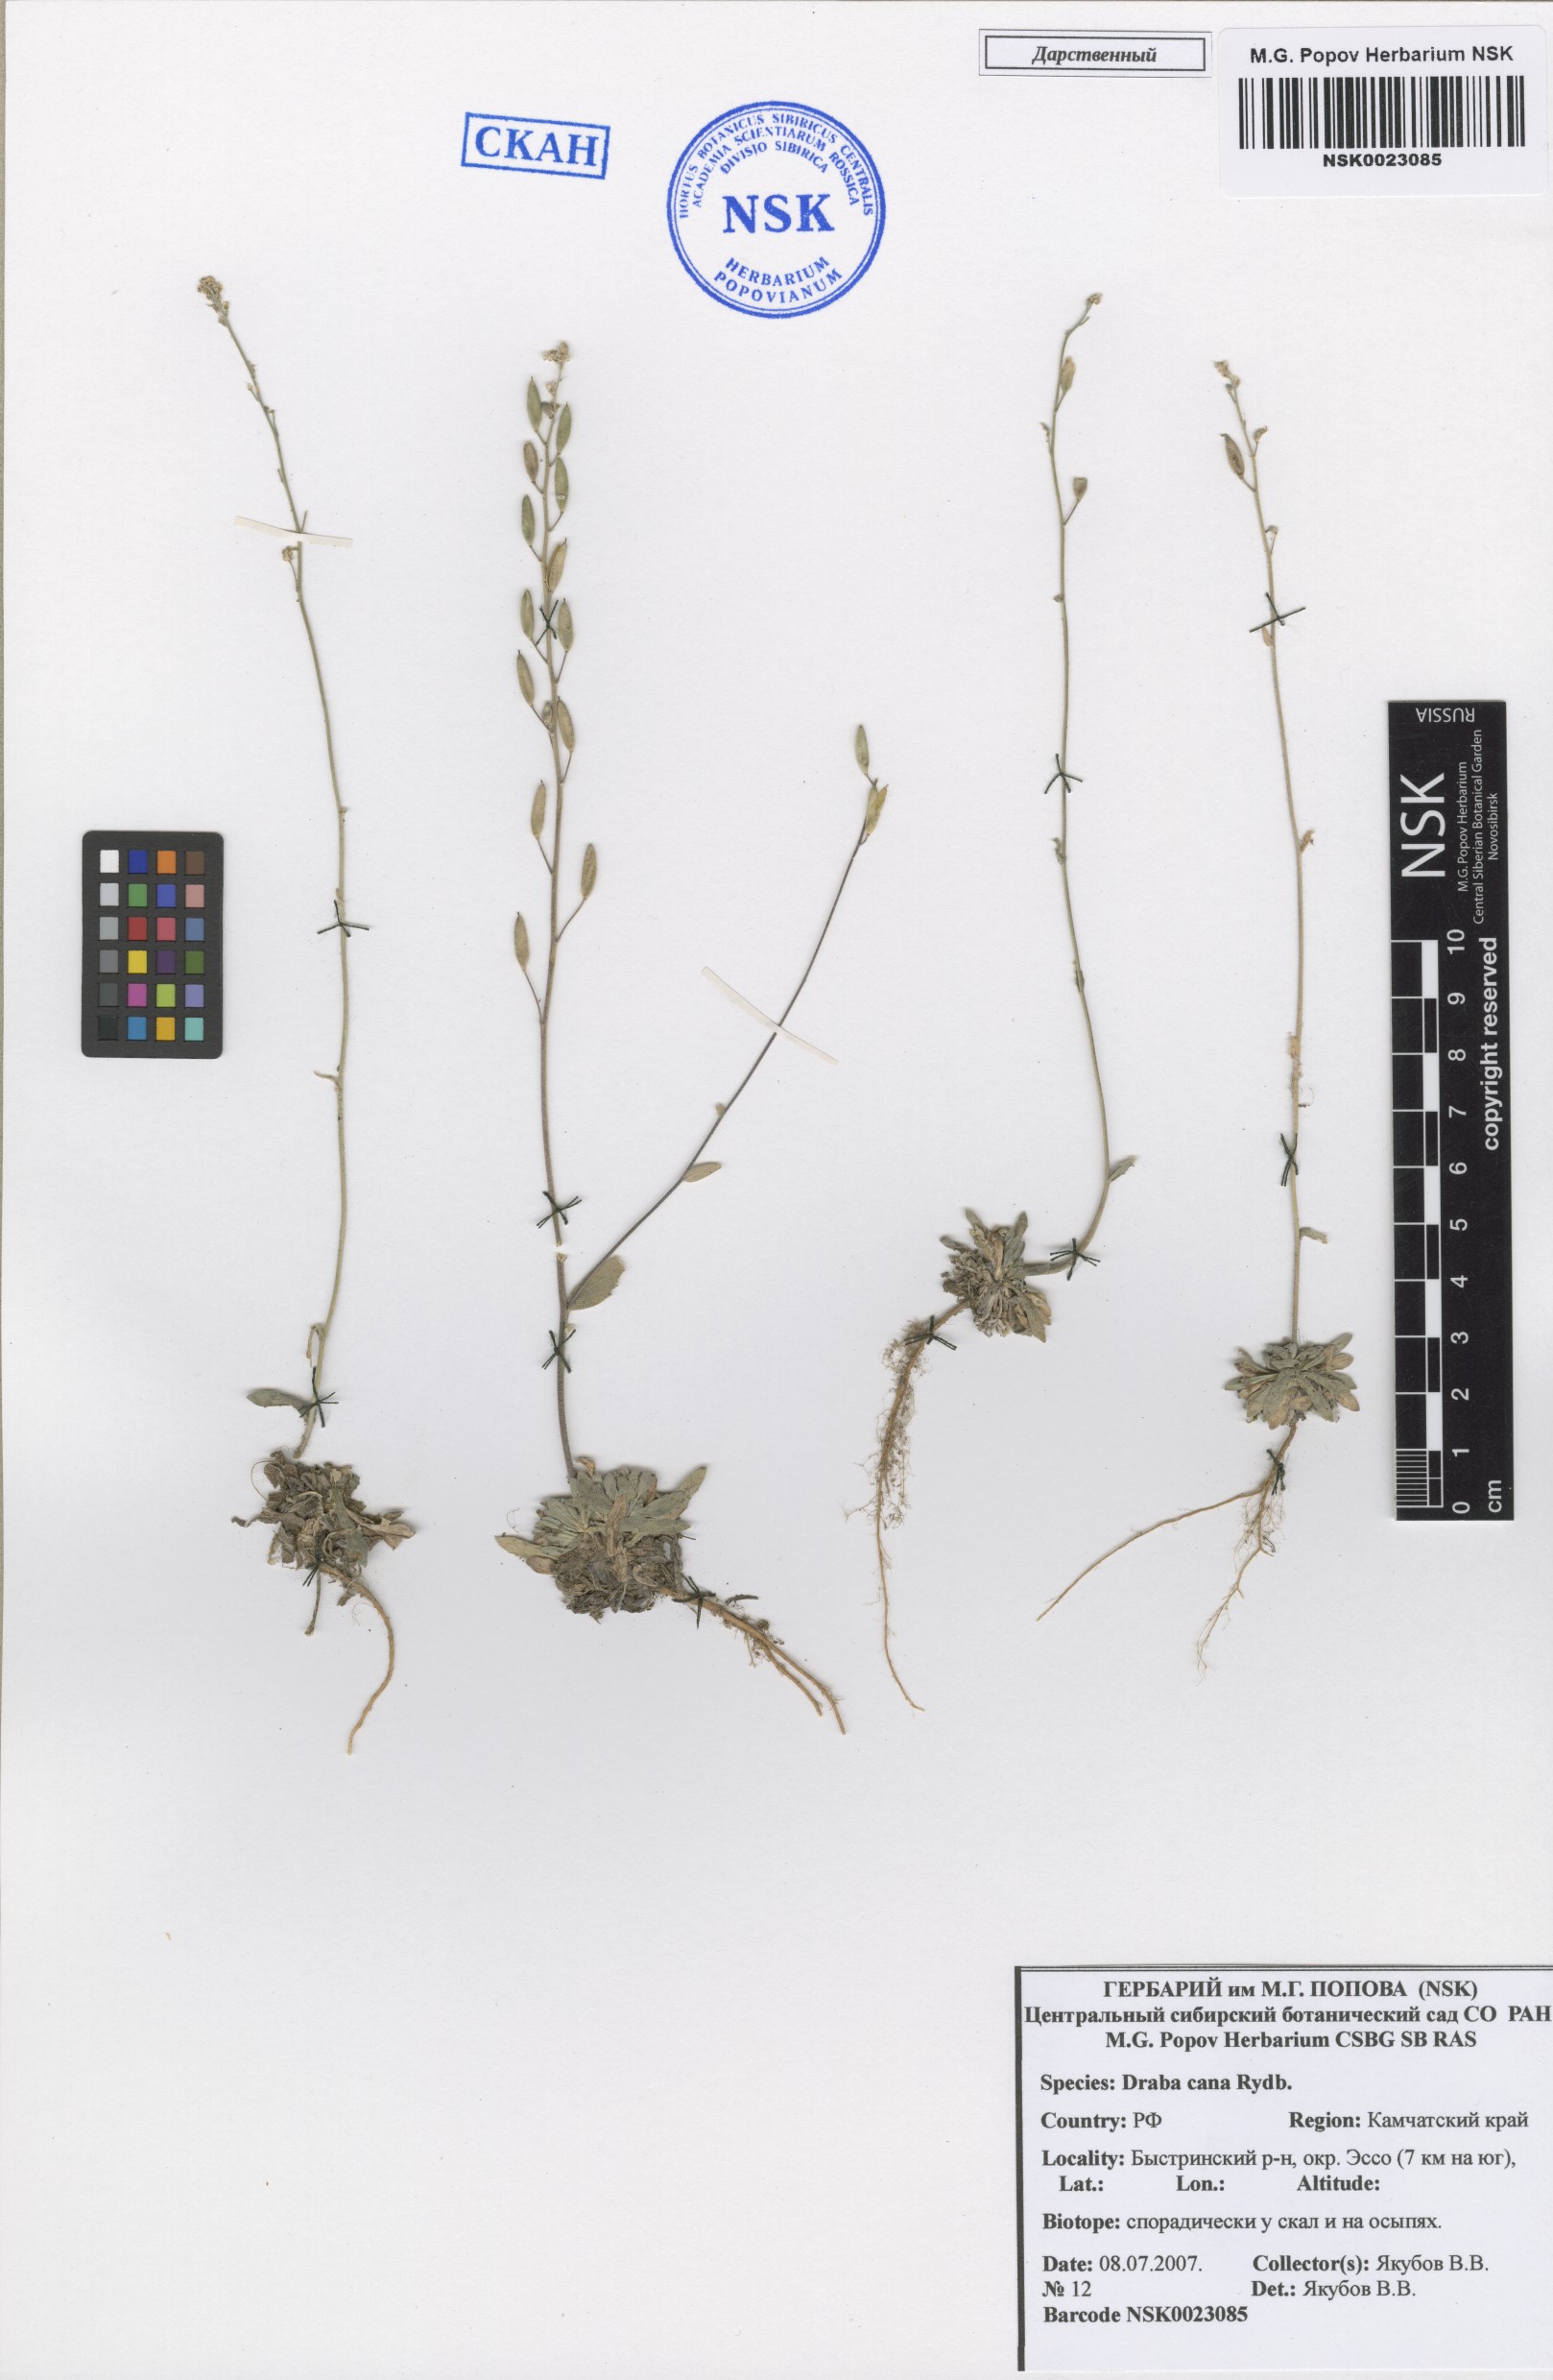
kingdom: Plantae
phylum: Tracheophyta
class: Magnoliopsida
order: Brassicales
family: Brassicaceae
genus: Draba
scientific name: Draba cana
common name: Hoary draba
